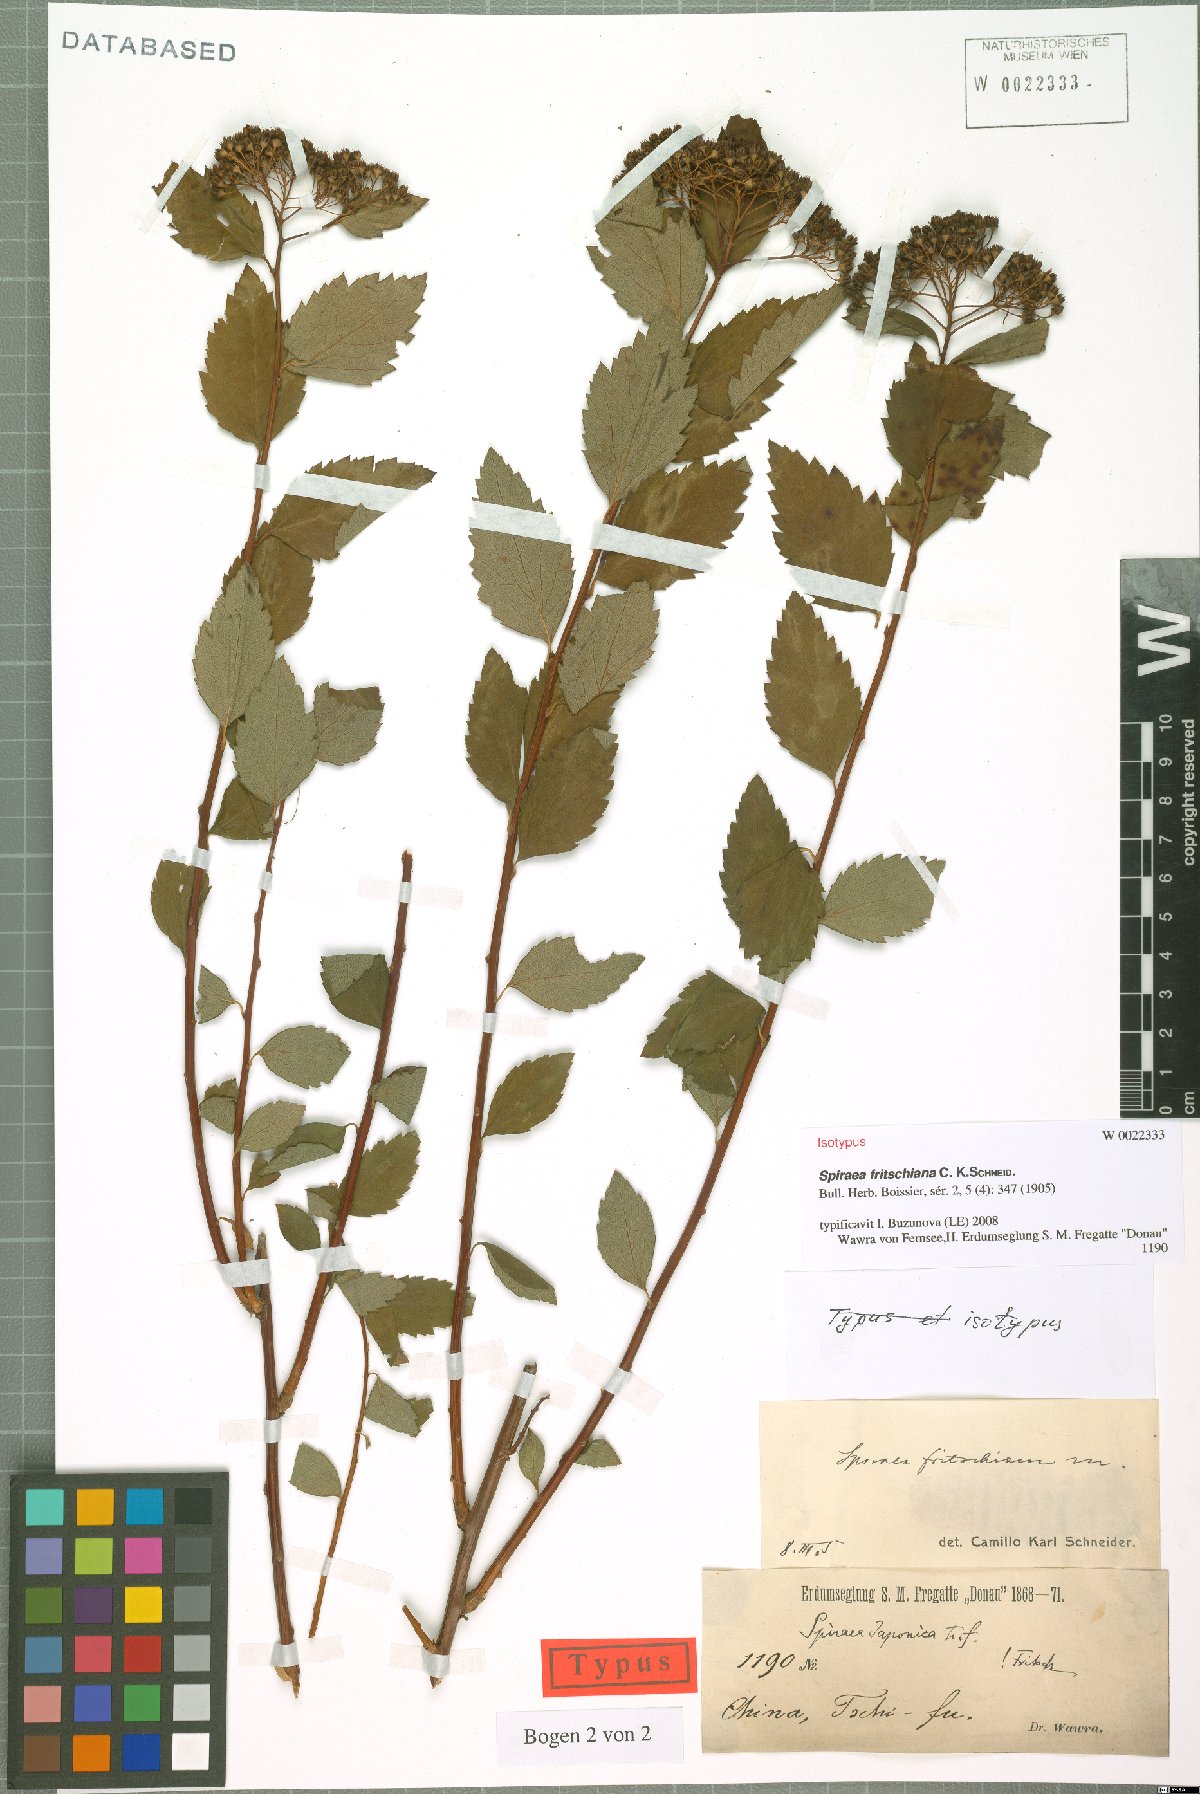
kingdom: Plantae
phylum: Tracheophyta
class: Magnoliopsida
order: Rosales
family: Rosaceae
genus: Spiraea
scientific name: Spiraea fritschiana
